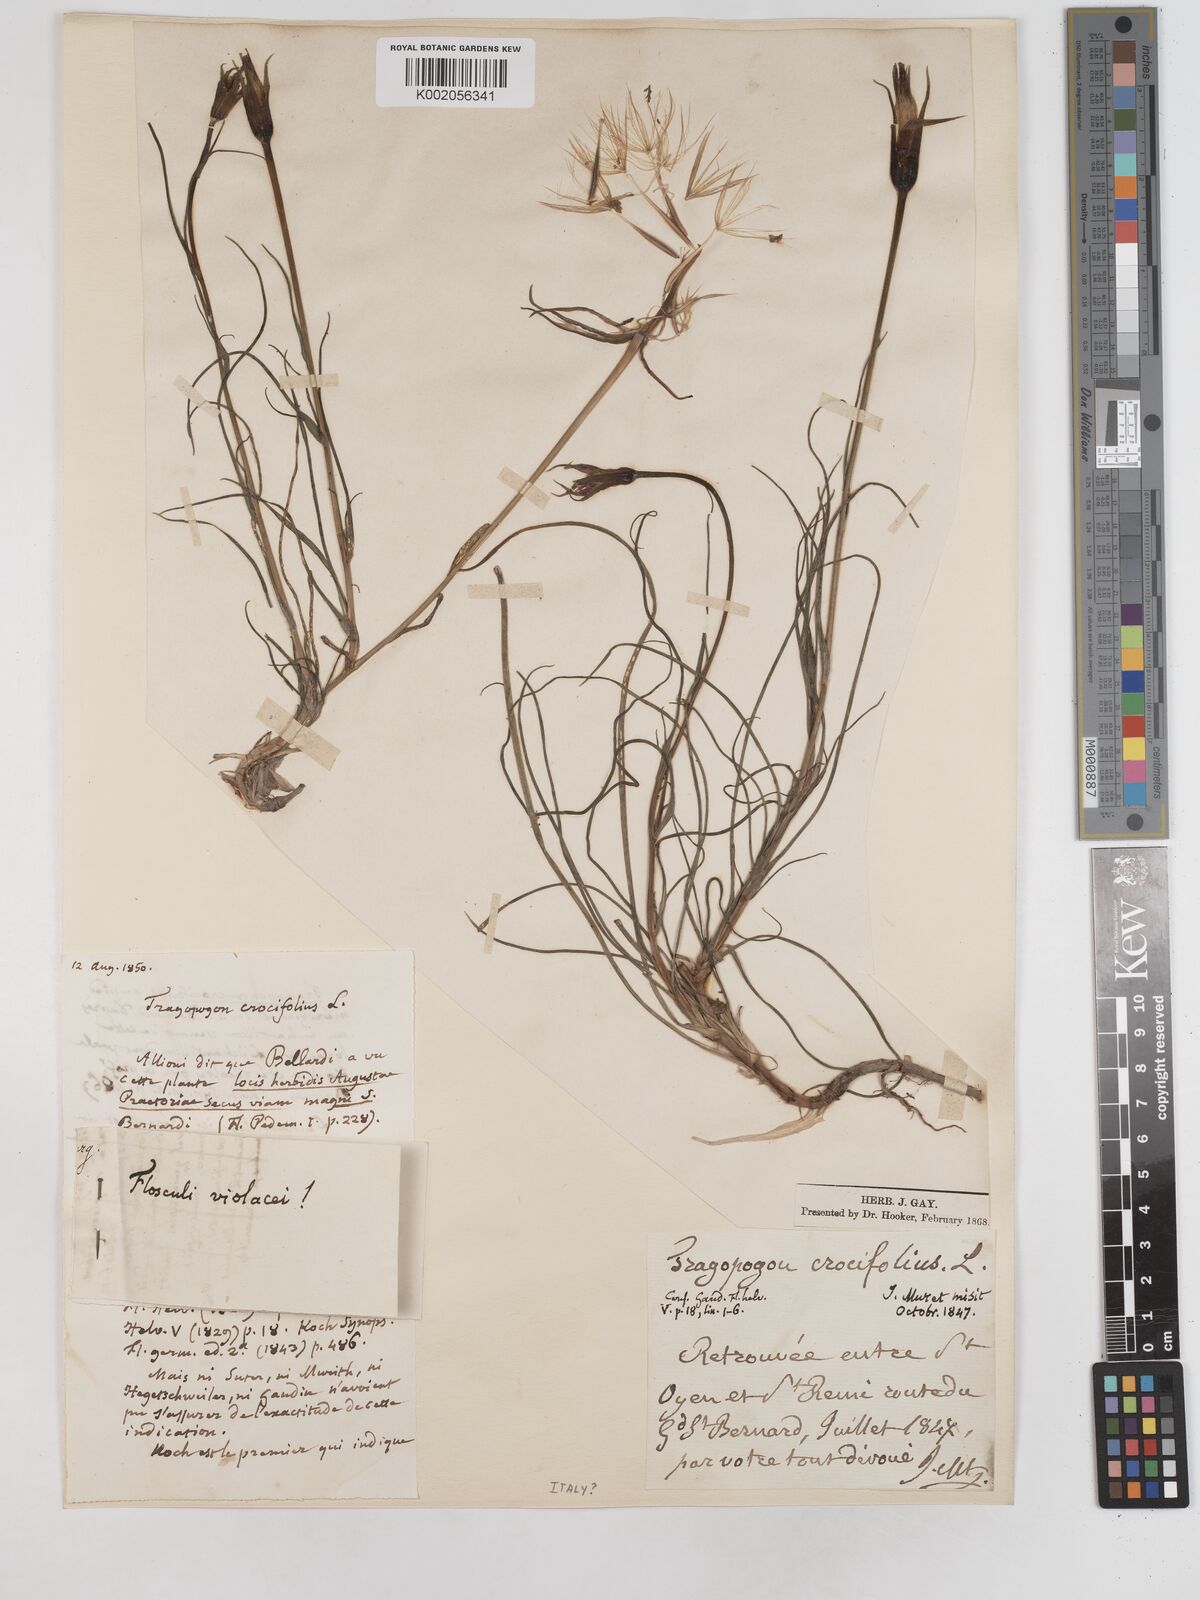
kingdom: Plantae
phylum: Tracheophyta
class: Magnoliopsida
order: Asterales
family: Asteraceae
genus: Tragopogon
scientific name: Tragopogon crocifolius
